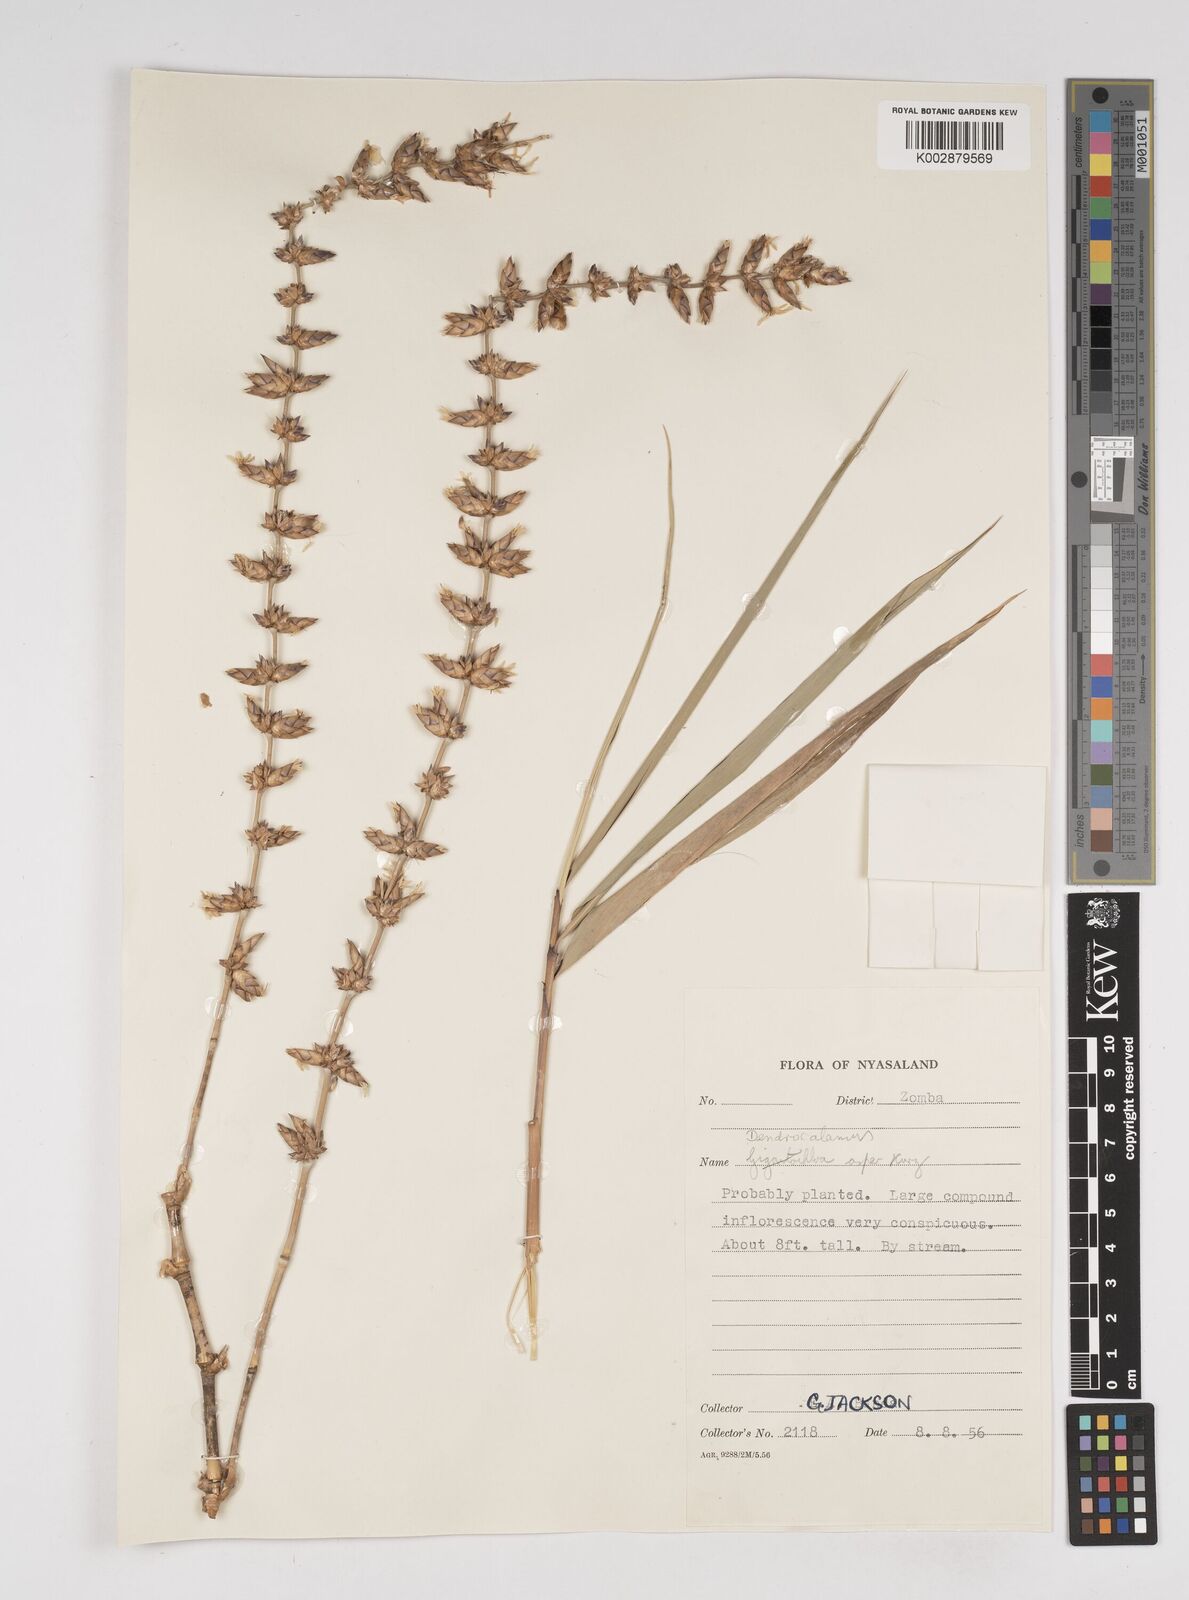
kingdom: Plantae
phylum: Tracheophyta
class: Liliopsida
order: Poales
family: Poaceae
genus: Dendrocalamus
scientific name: Dendrocalamus asper
